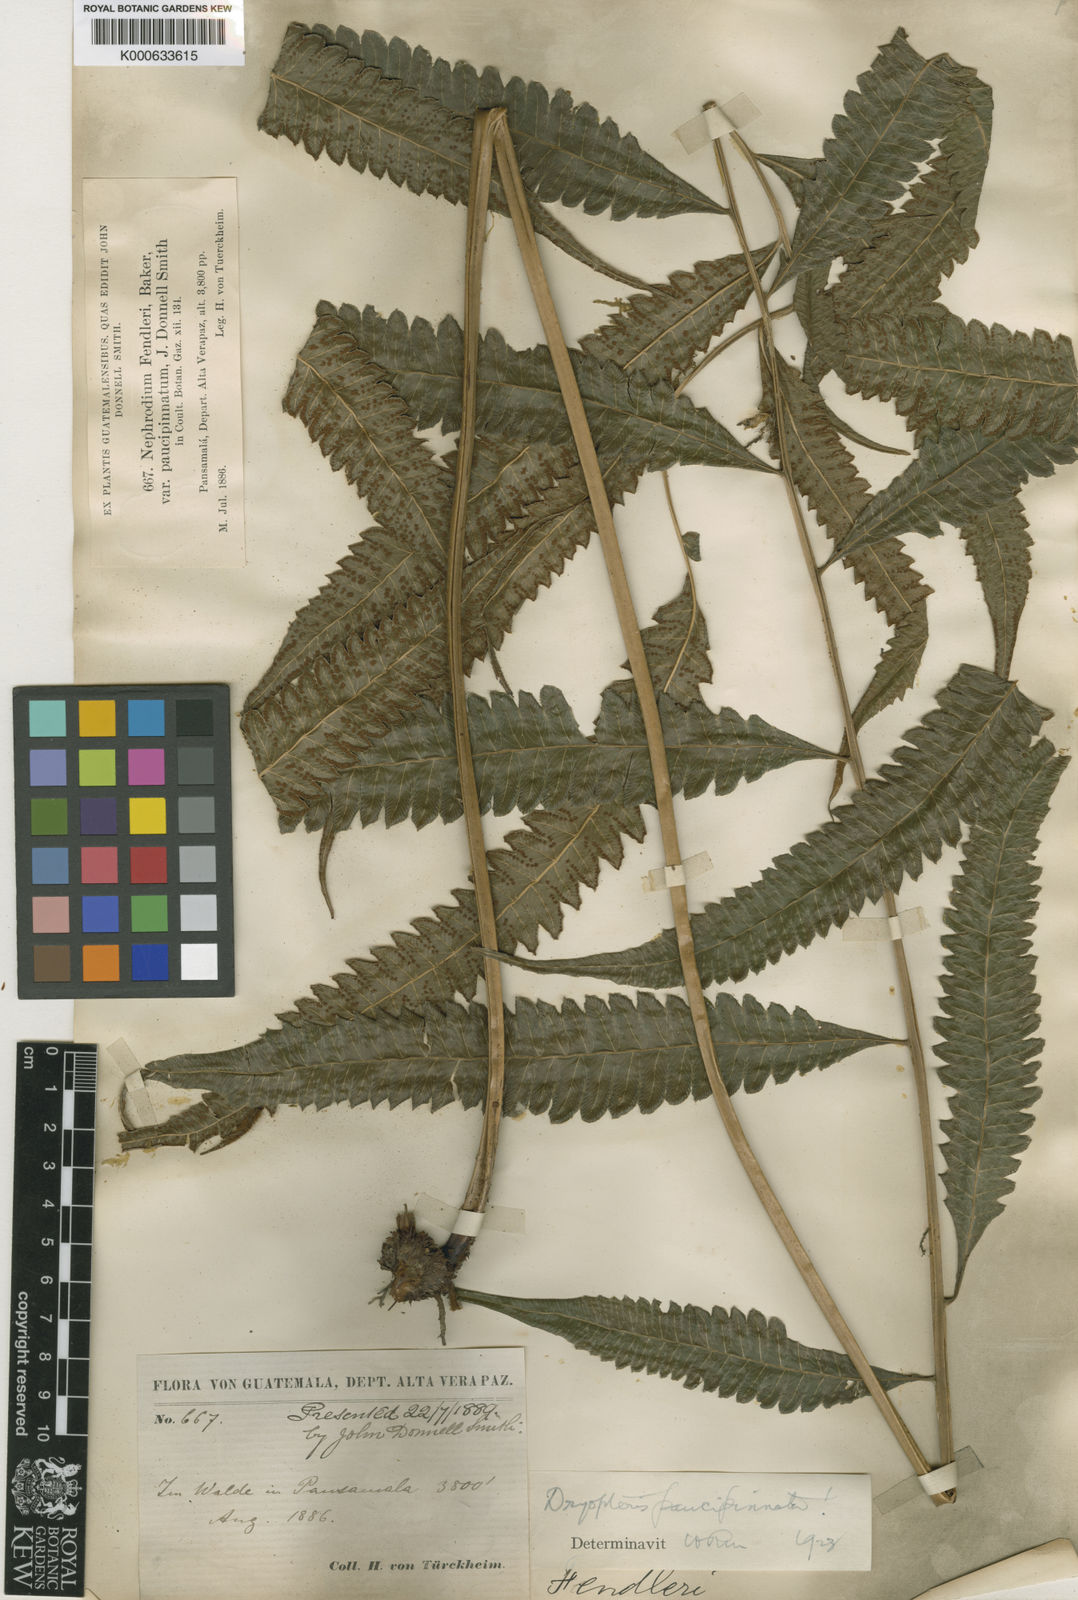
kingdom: Plantae
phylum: Tracheophyta
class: Polypodiopsida
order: Polypodiales
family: Thelypteridaceae
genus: Goniopteris
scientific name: Goniopteris paucipinnata
